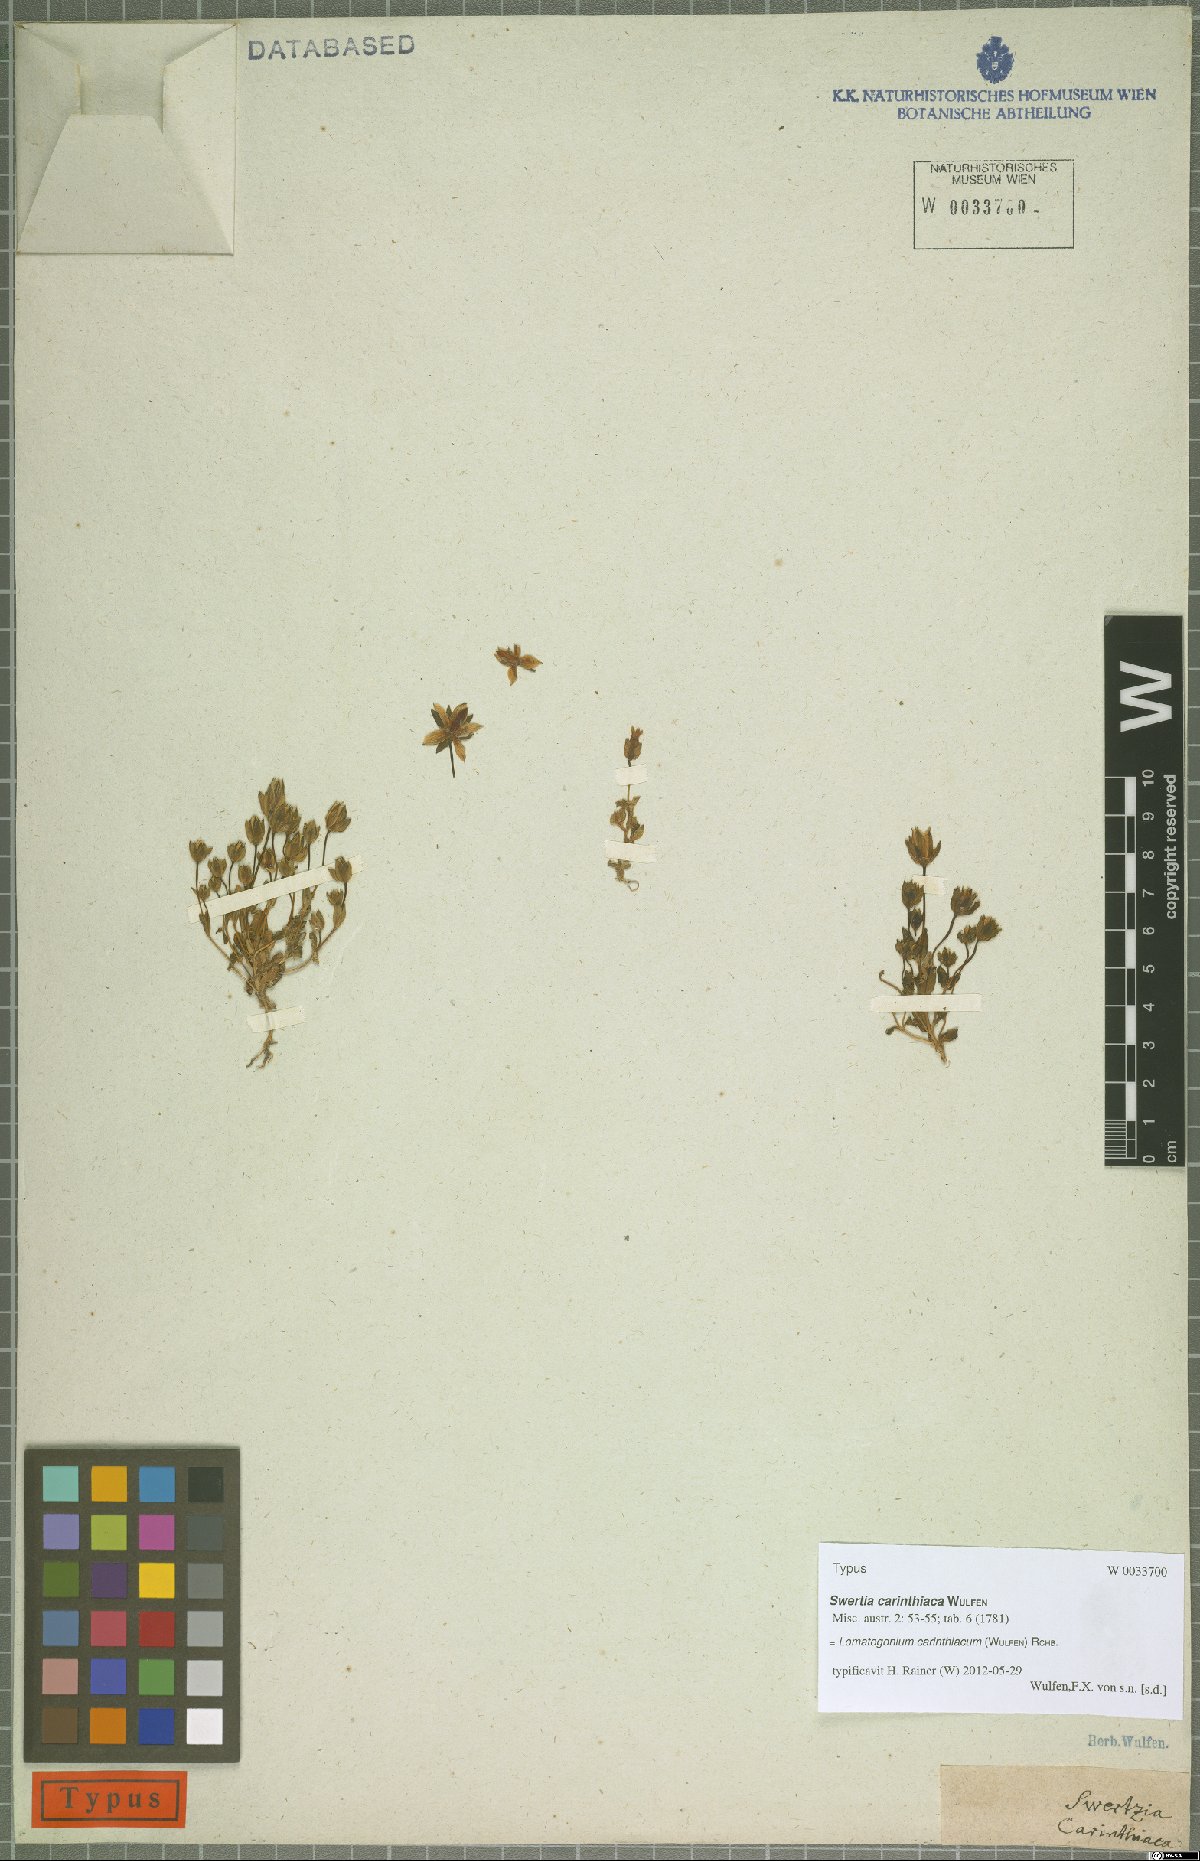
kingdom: Plantae
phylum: Tracheophyta
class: Magnoliopsida
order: Gentianales
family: Gentianaceae
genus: Lomatogonium
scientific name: Lomatogonium carinthiacum
